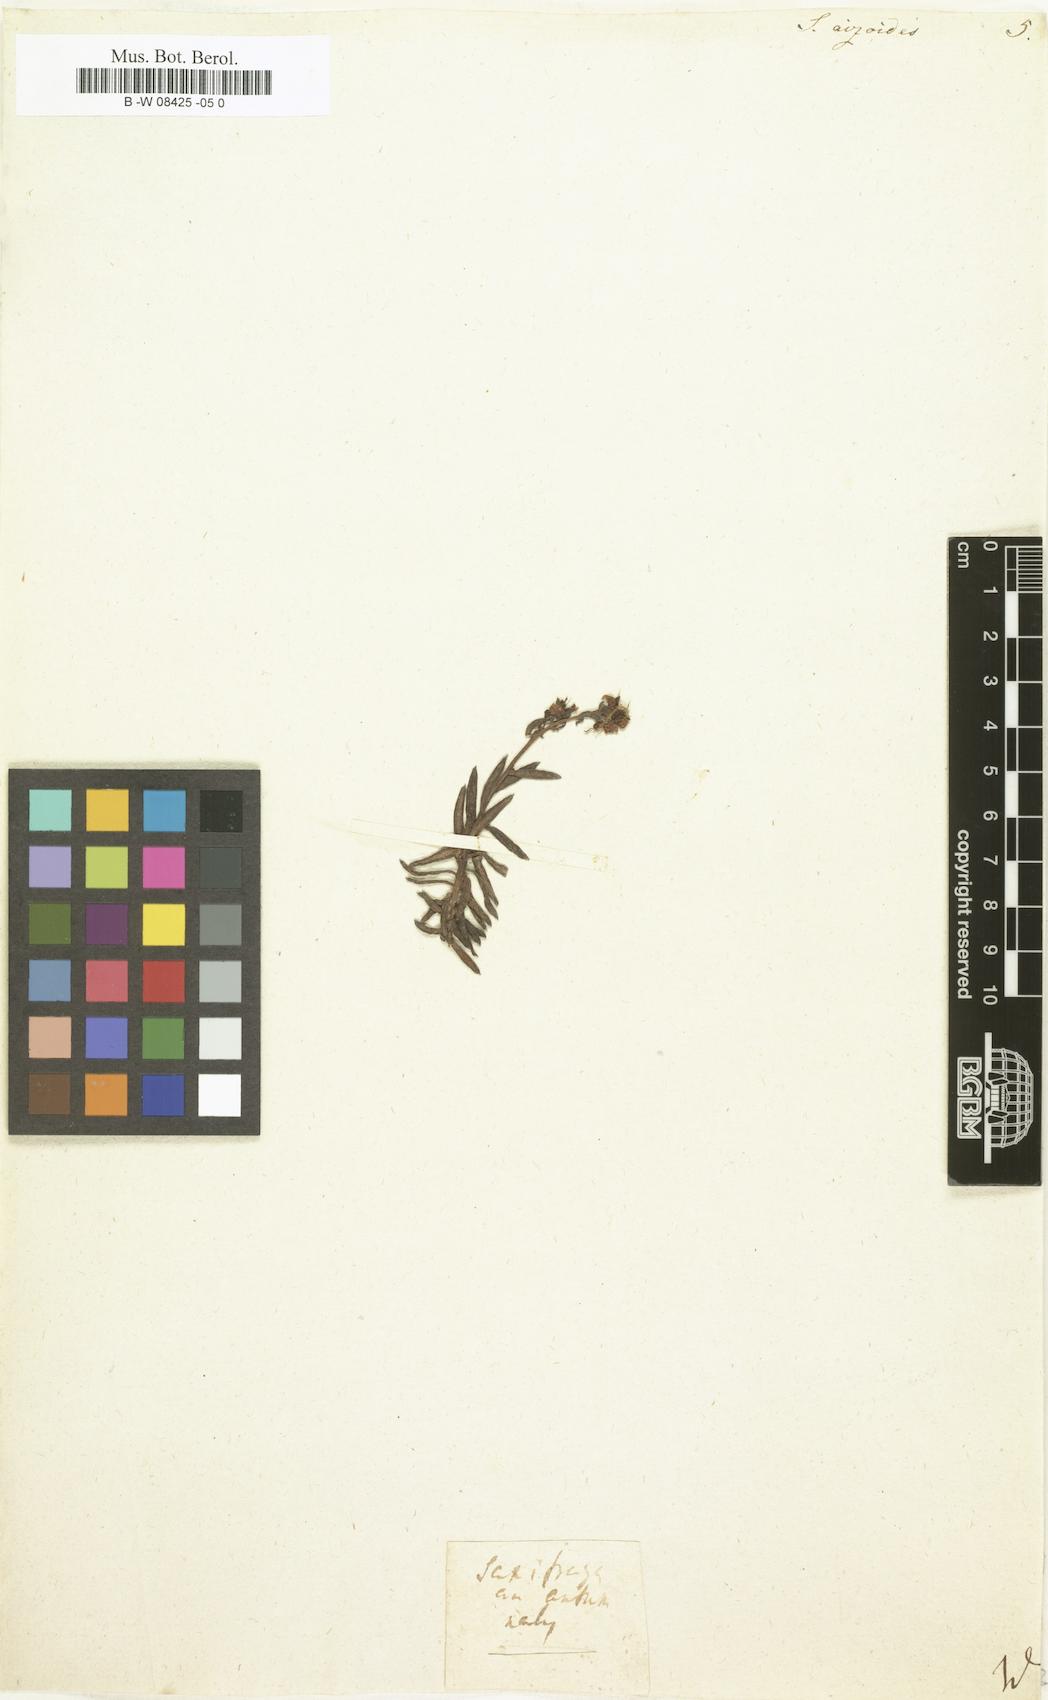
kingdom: Plantae
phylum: Tracheophyta
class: Magnoliopsida
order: Saxifragales
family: Saxifragaceae
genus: Saxifraga
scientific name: Saxifraga aizoides
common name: Yellow mountain saxifrage
